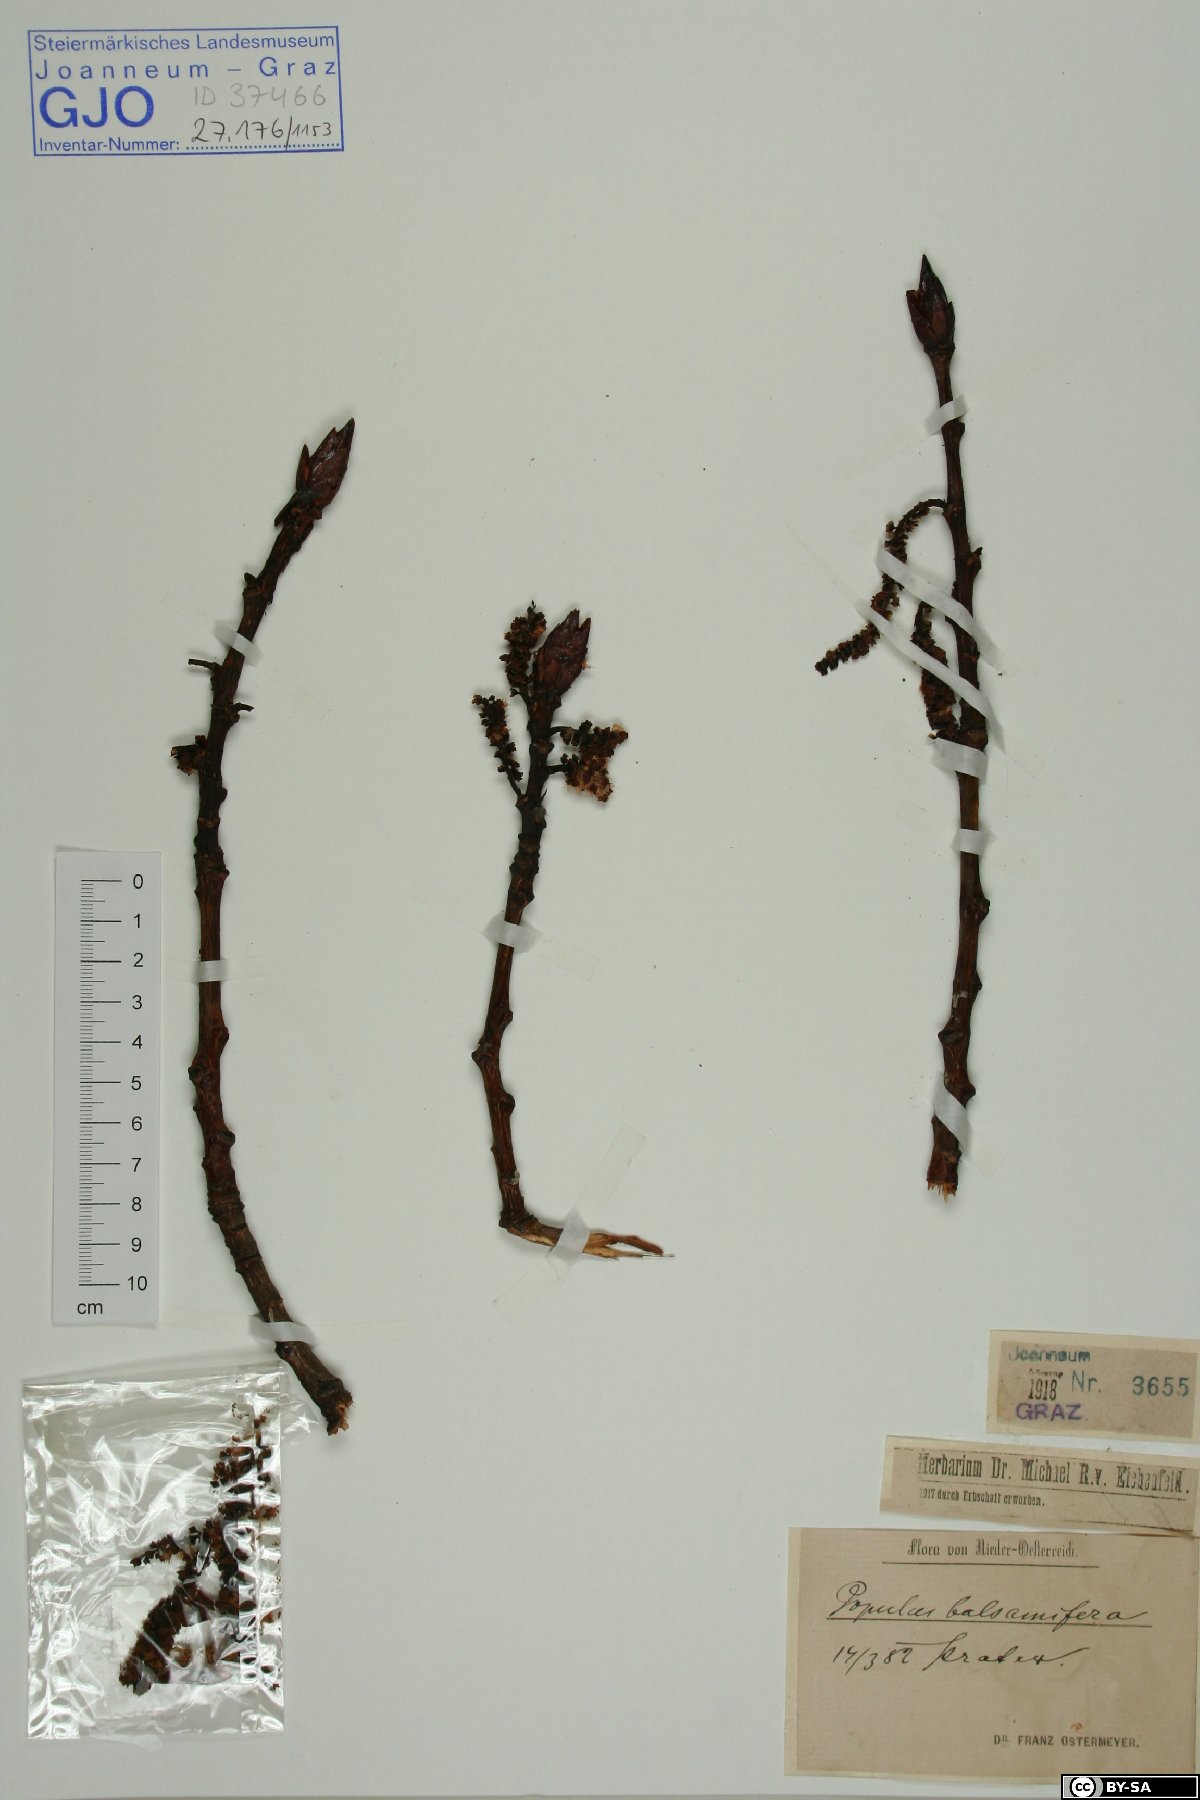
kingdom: Plantae
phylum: Tracheophyta
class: Magnoliopsida
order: Malpighiales
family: Salicaceae
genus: Populus
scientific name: Populus balsamifera
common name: Balsam poplar
